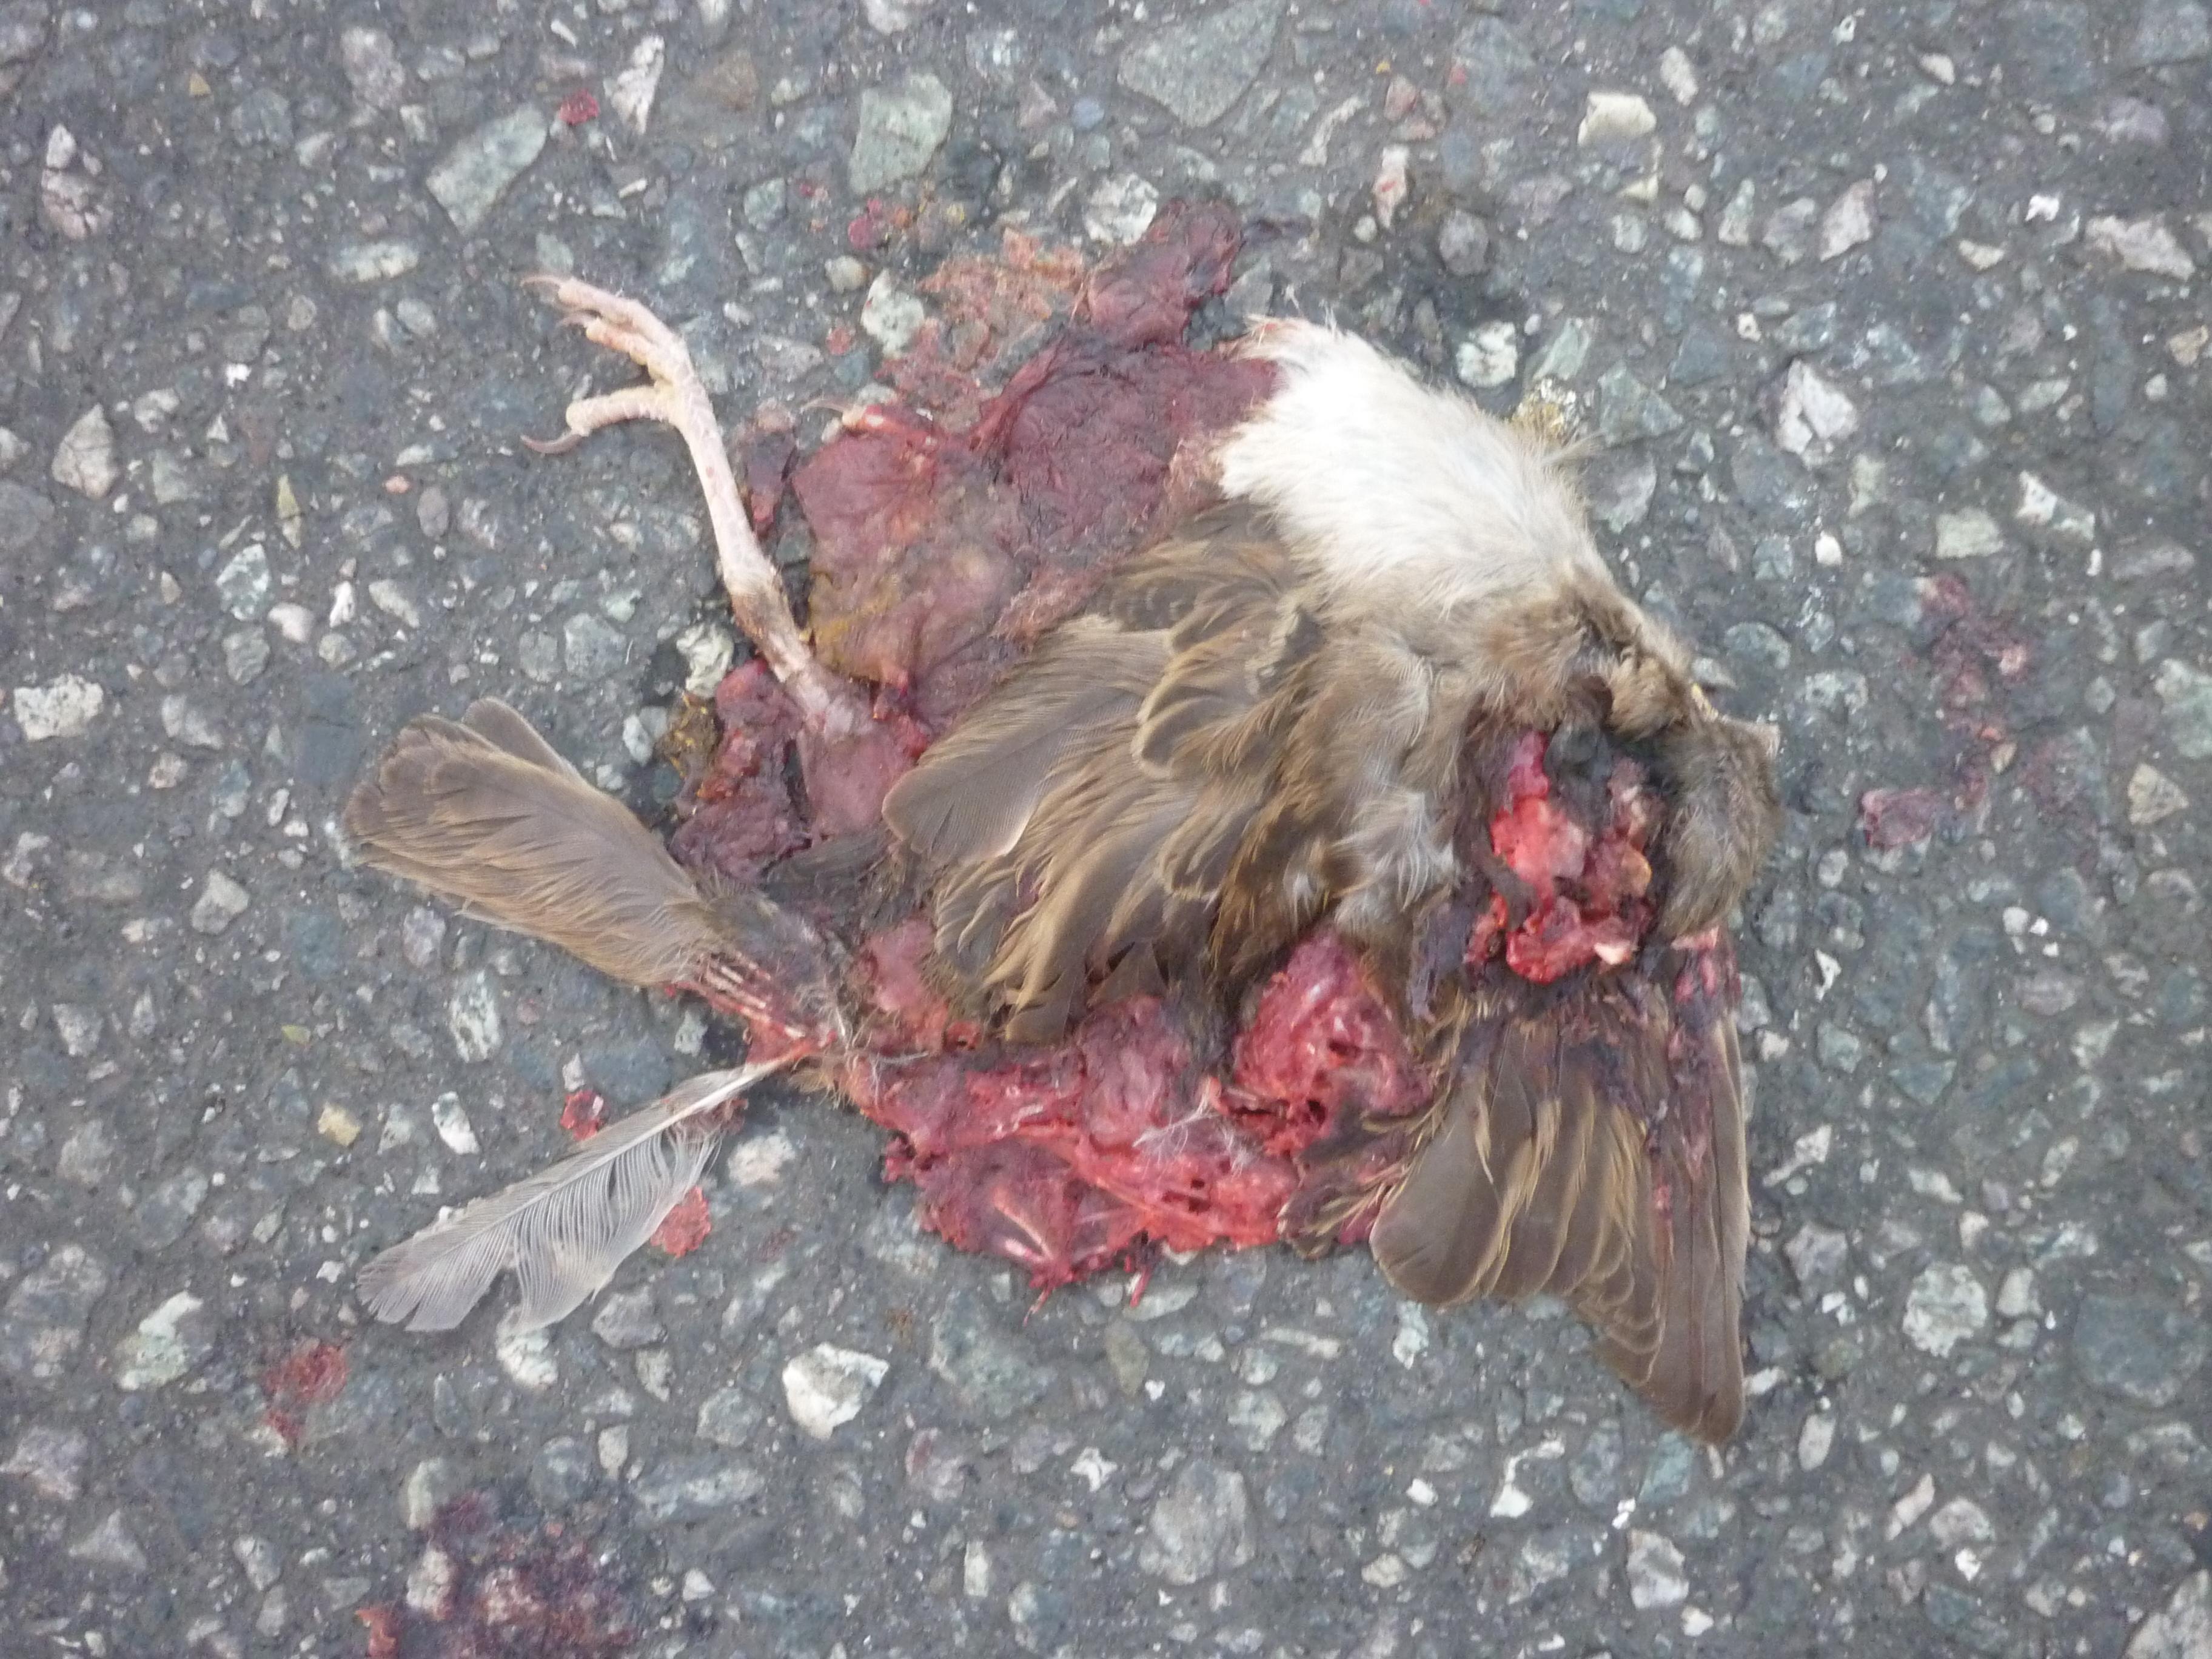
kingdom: Animalia
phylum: Chordata
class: Aves
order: Passeriformes
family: Passeridae
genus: Passer
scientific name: Passer domesticus
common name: House sparrow
